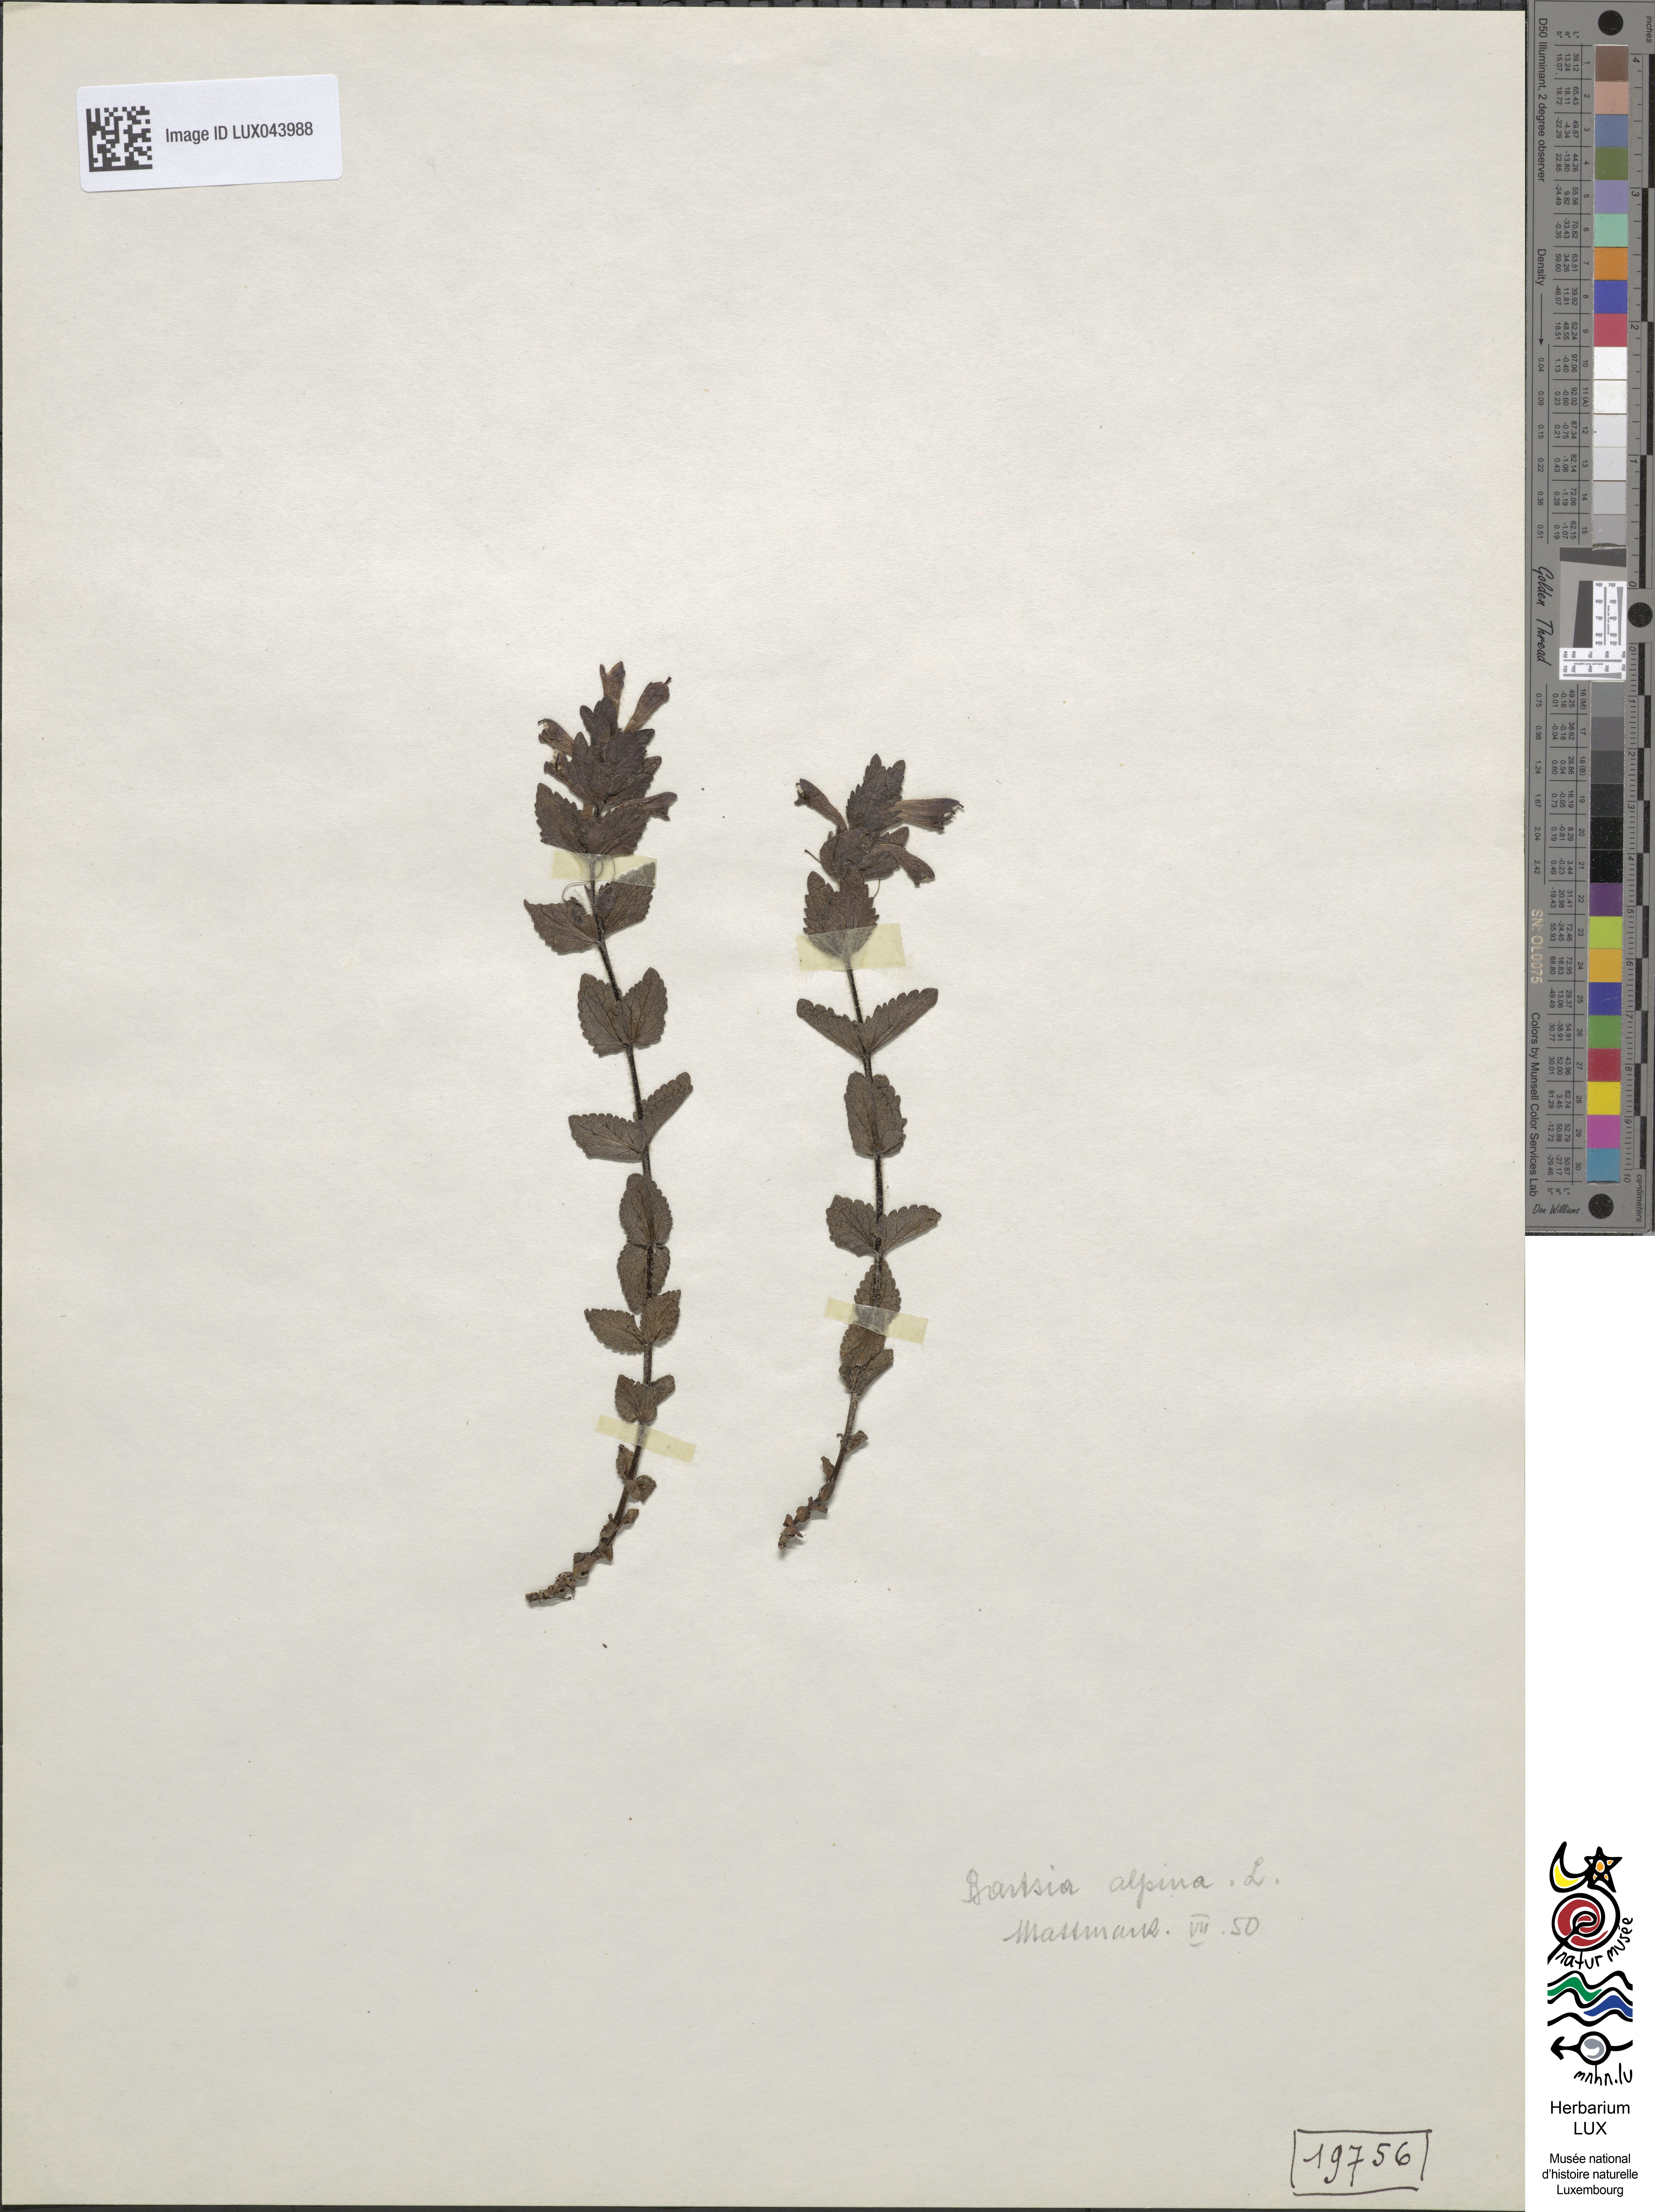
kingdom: Plantae
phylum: Tracheophyta
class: Magnoliopsida
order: Lamiales
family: Orobanchaceae
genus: Bartsia
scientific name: Bartsia alpina
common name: Alpine bartsia
